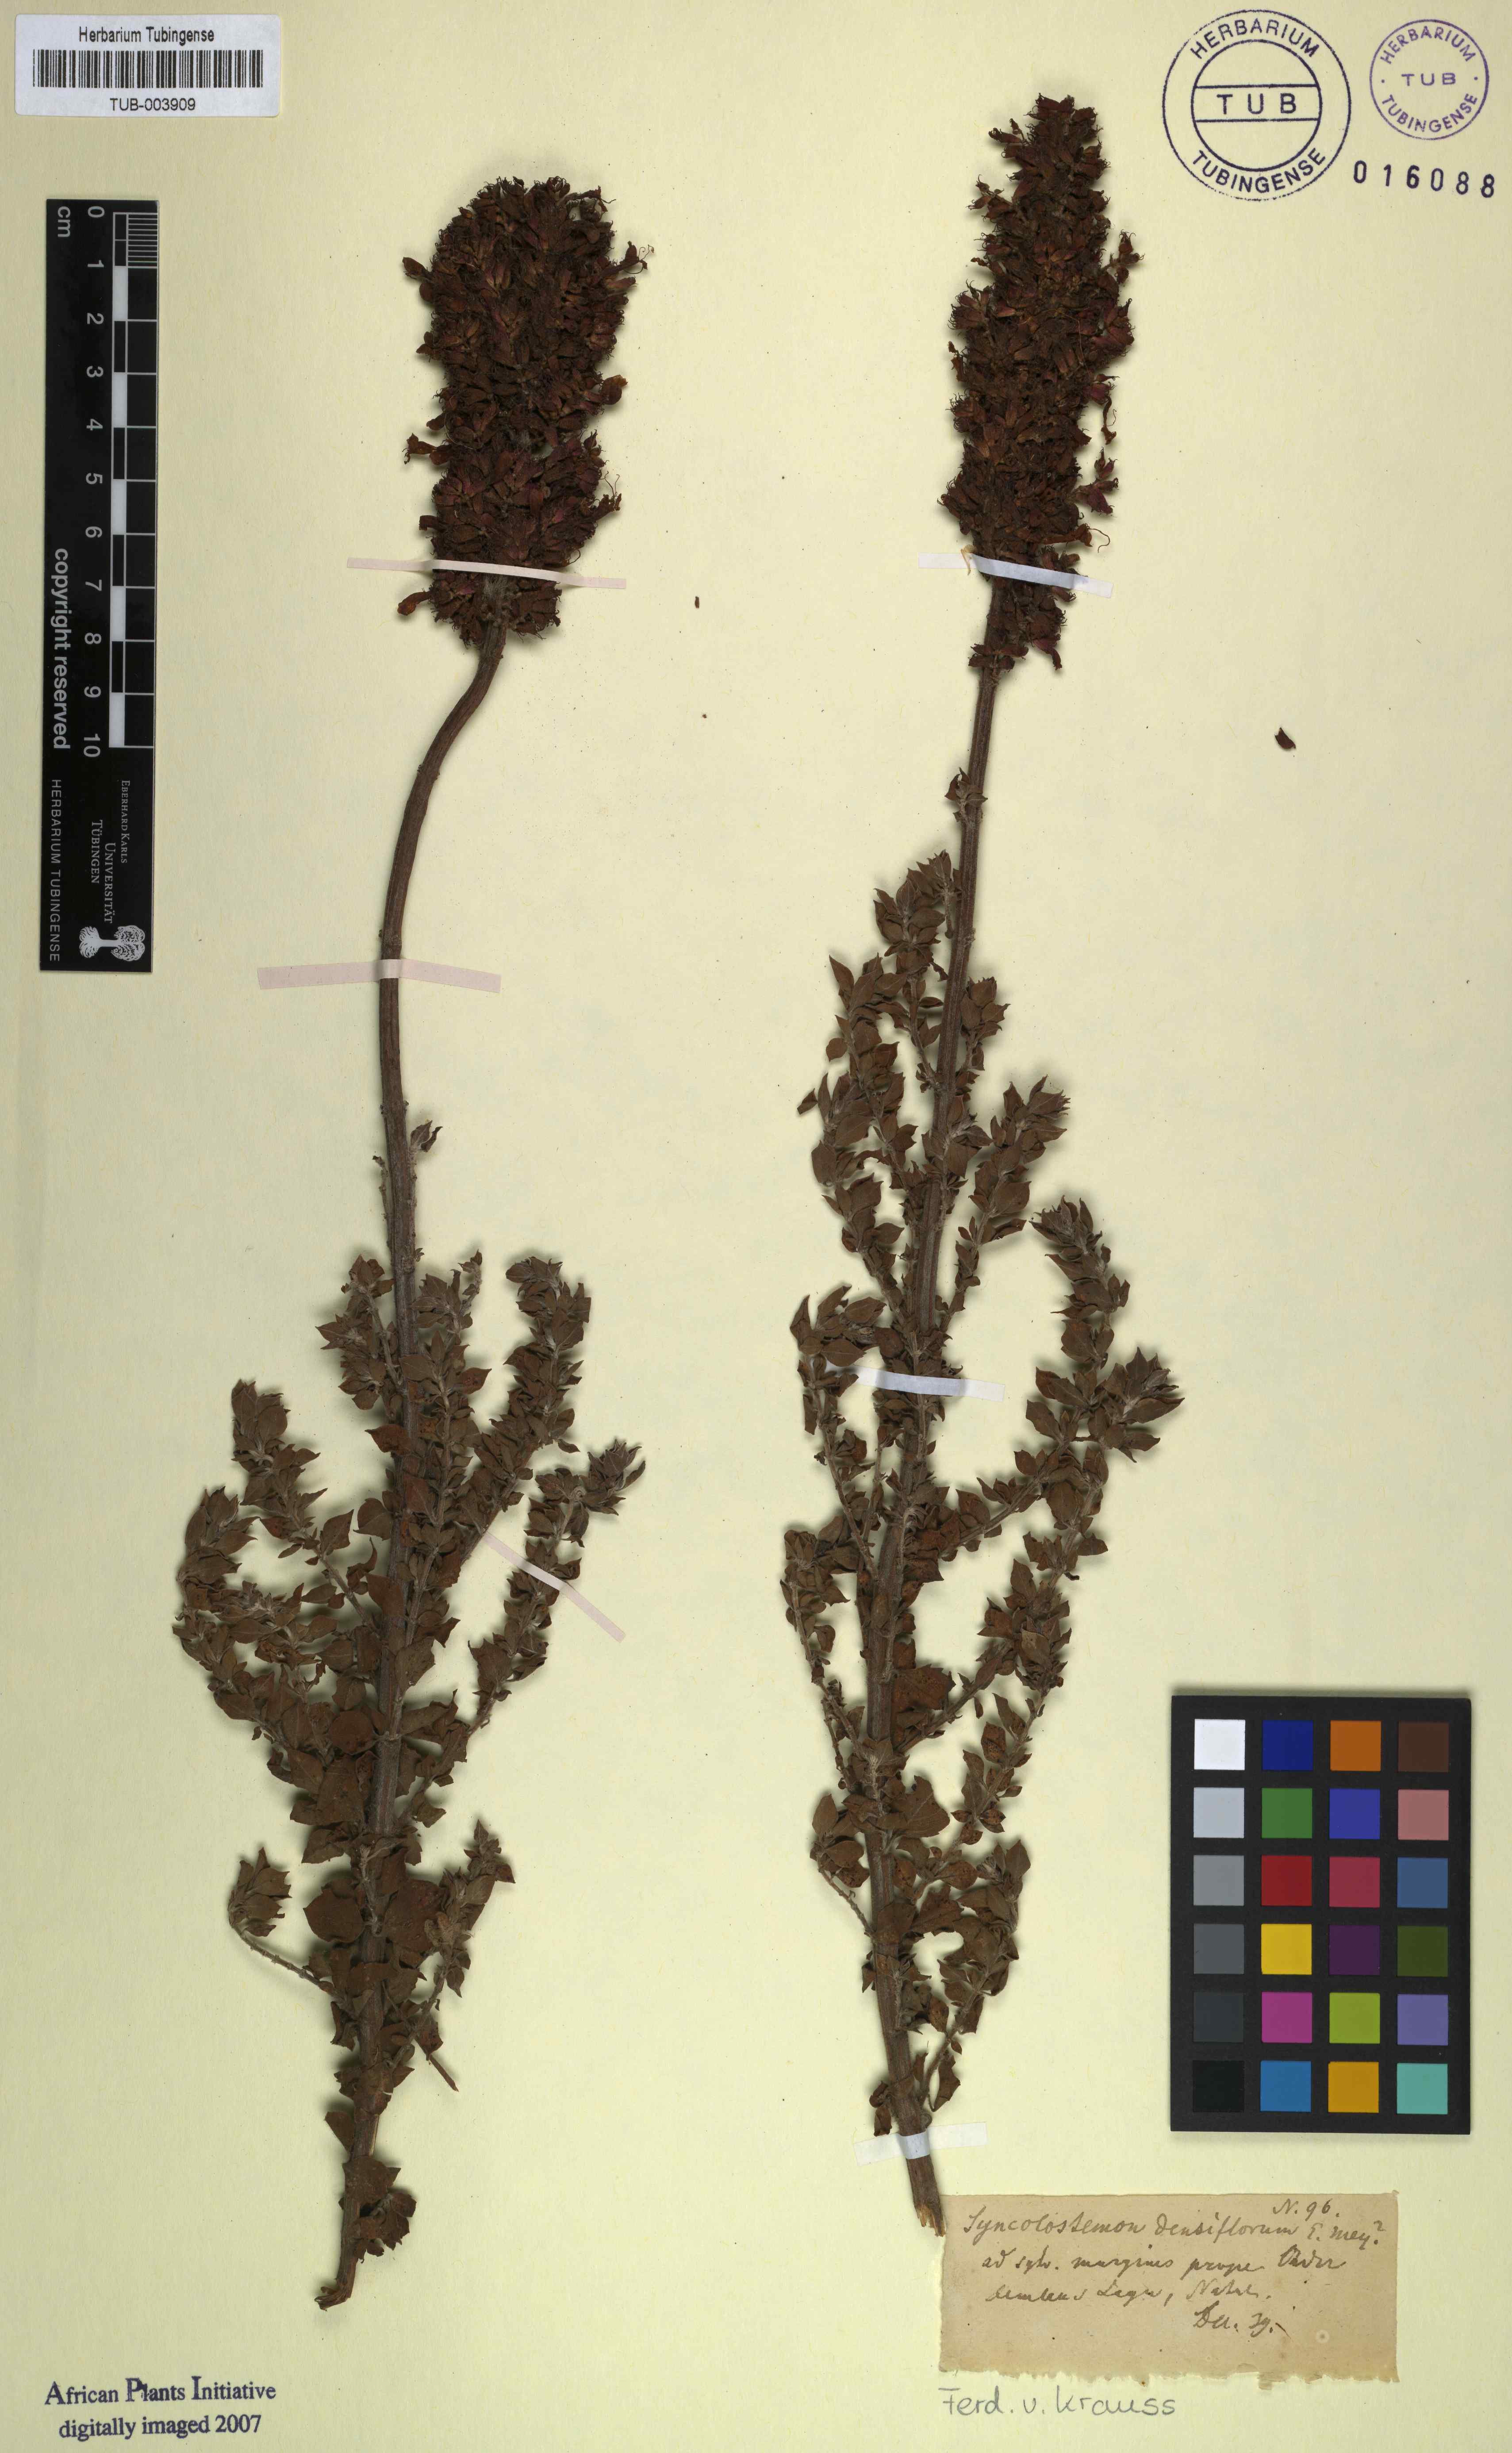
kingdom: Plantae
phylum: Tracheophyta
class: Magnoliopsida
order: Lamiales
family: Lamiaceae
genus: Syncolostemon
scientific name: Syncolostemon densiflorus
